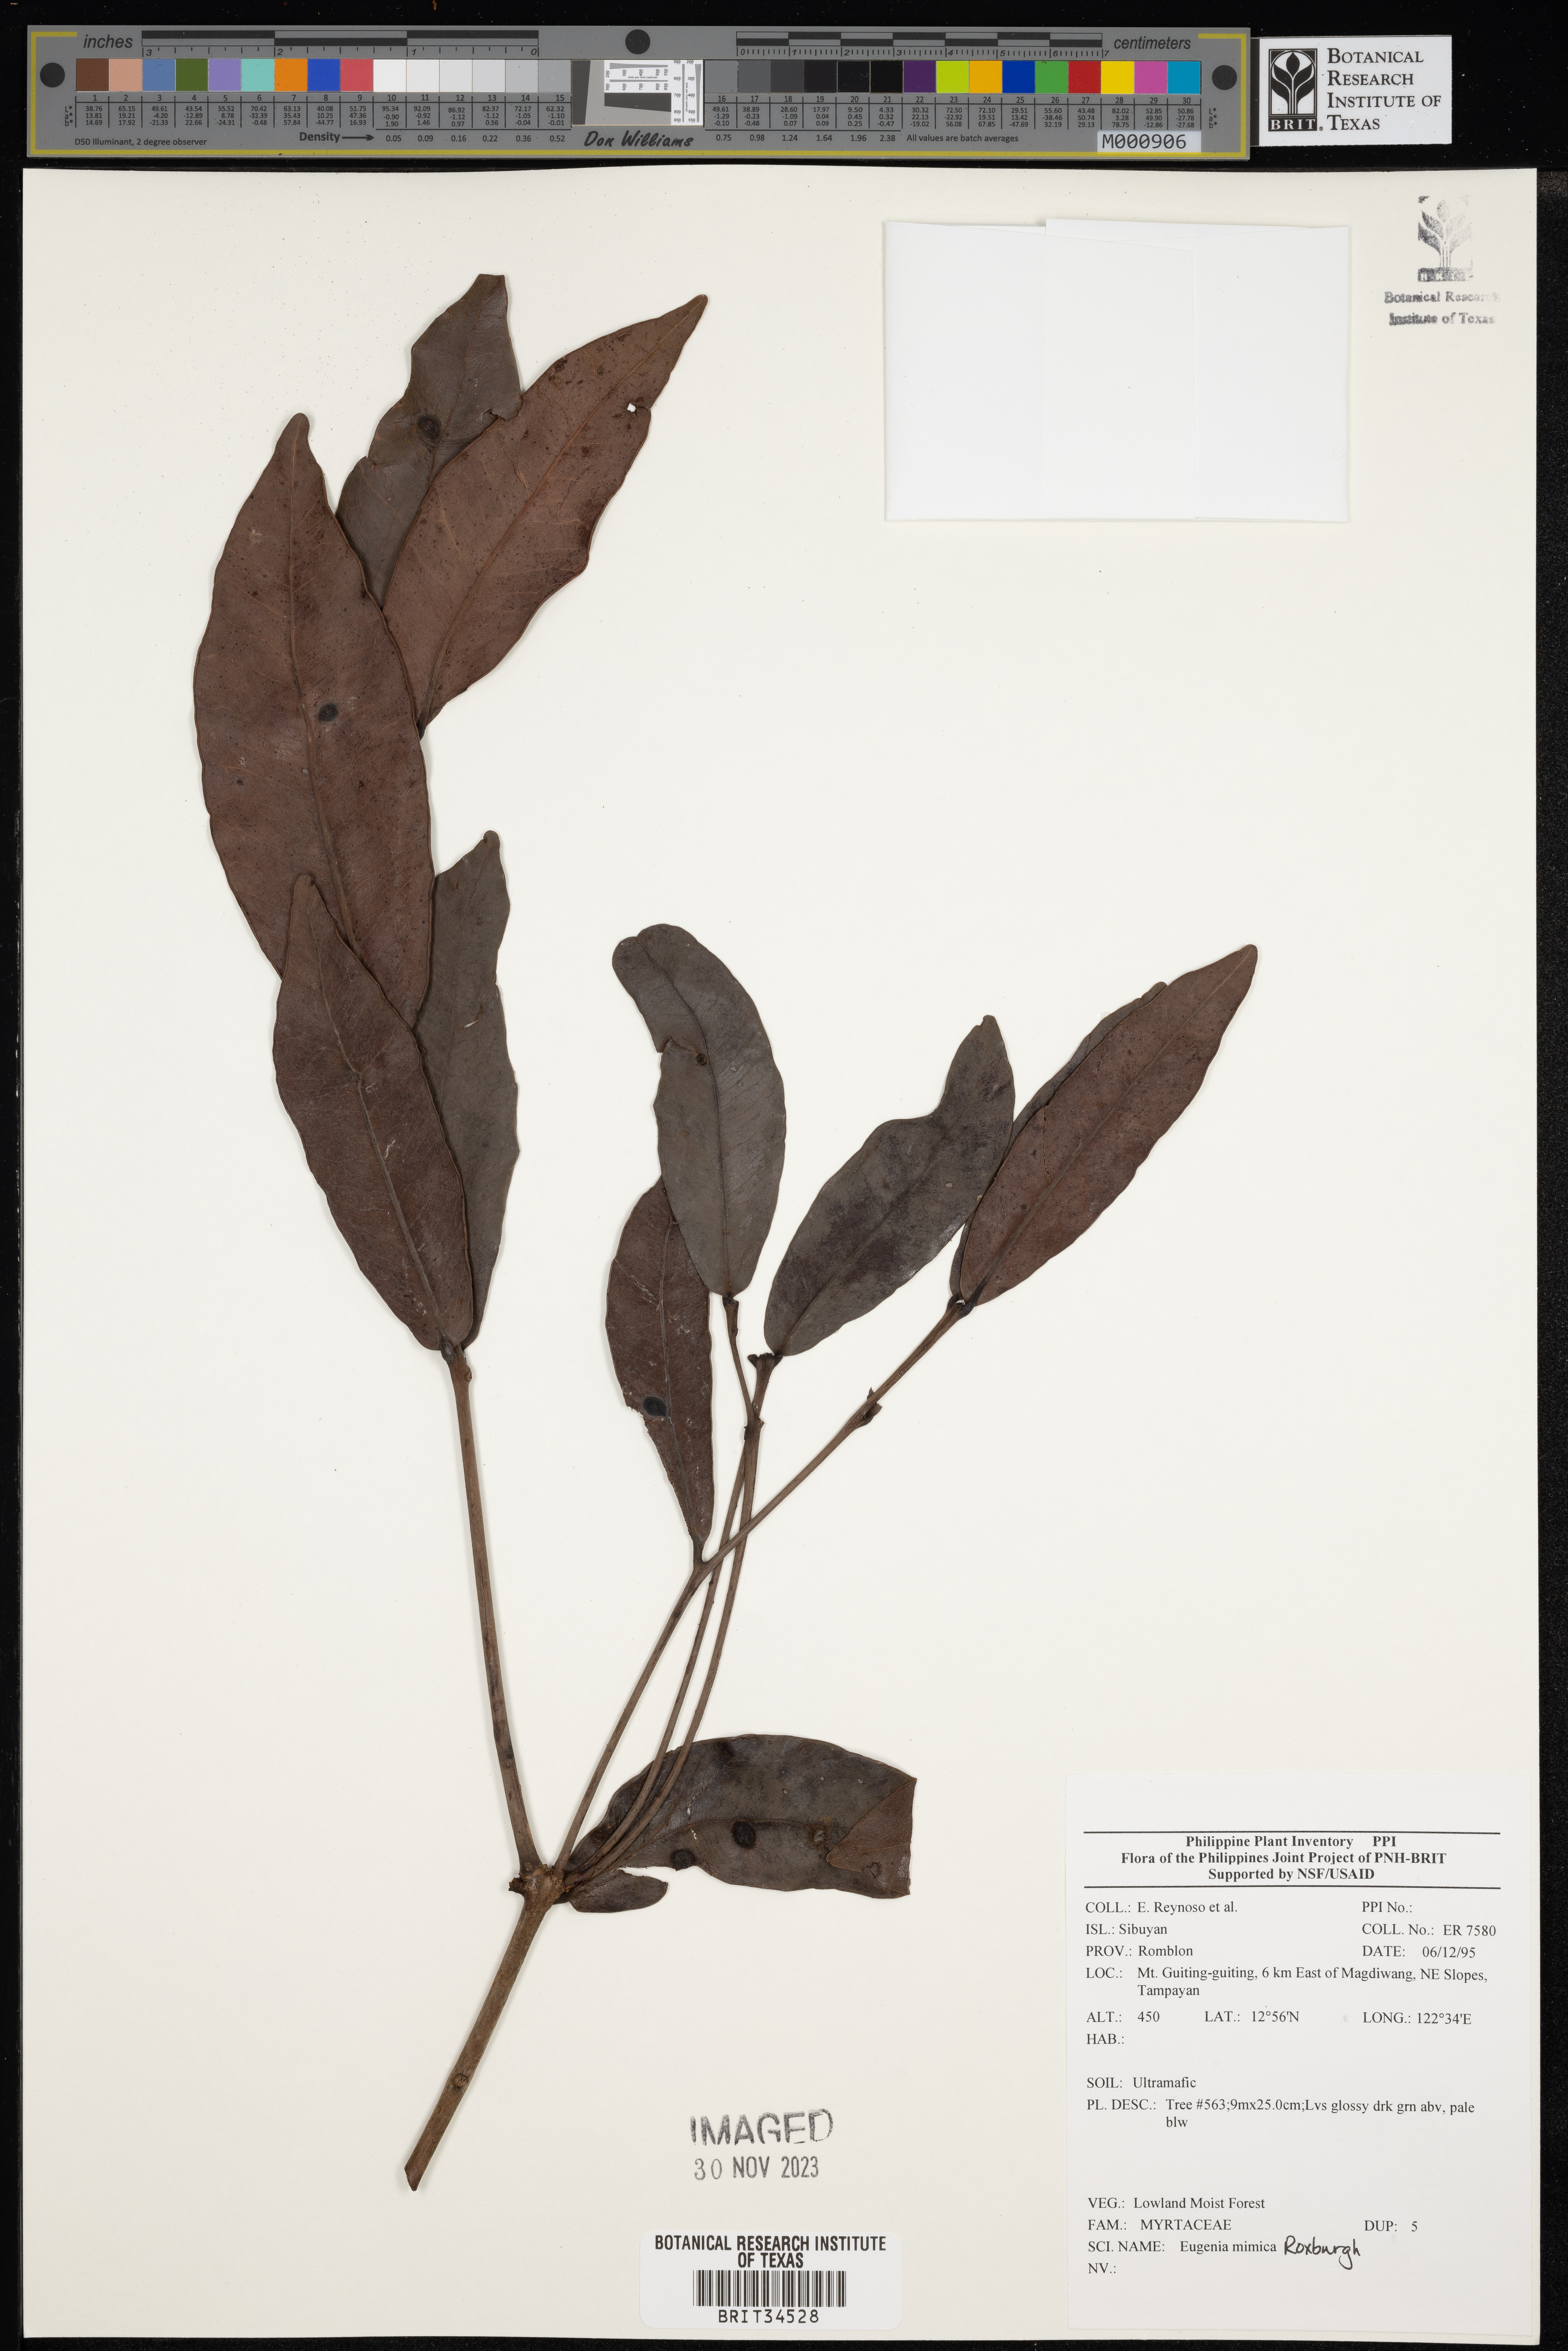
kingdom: Plantae
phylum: Tracheophyta
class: Magnoliopsida
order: Myrtales
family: Myrtaceae
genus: Eugenia
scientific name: Eugenia
